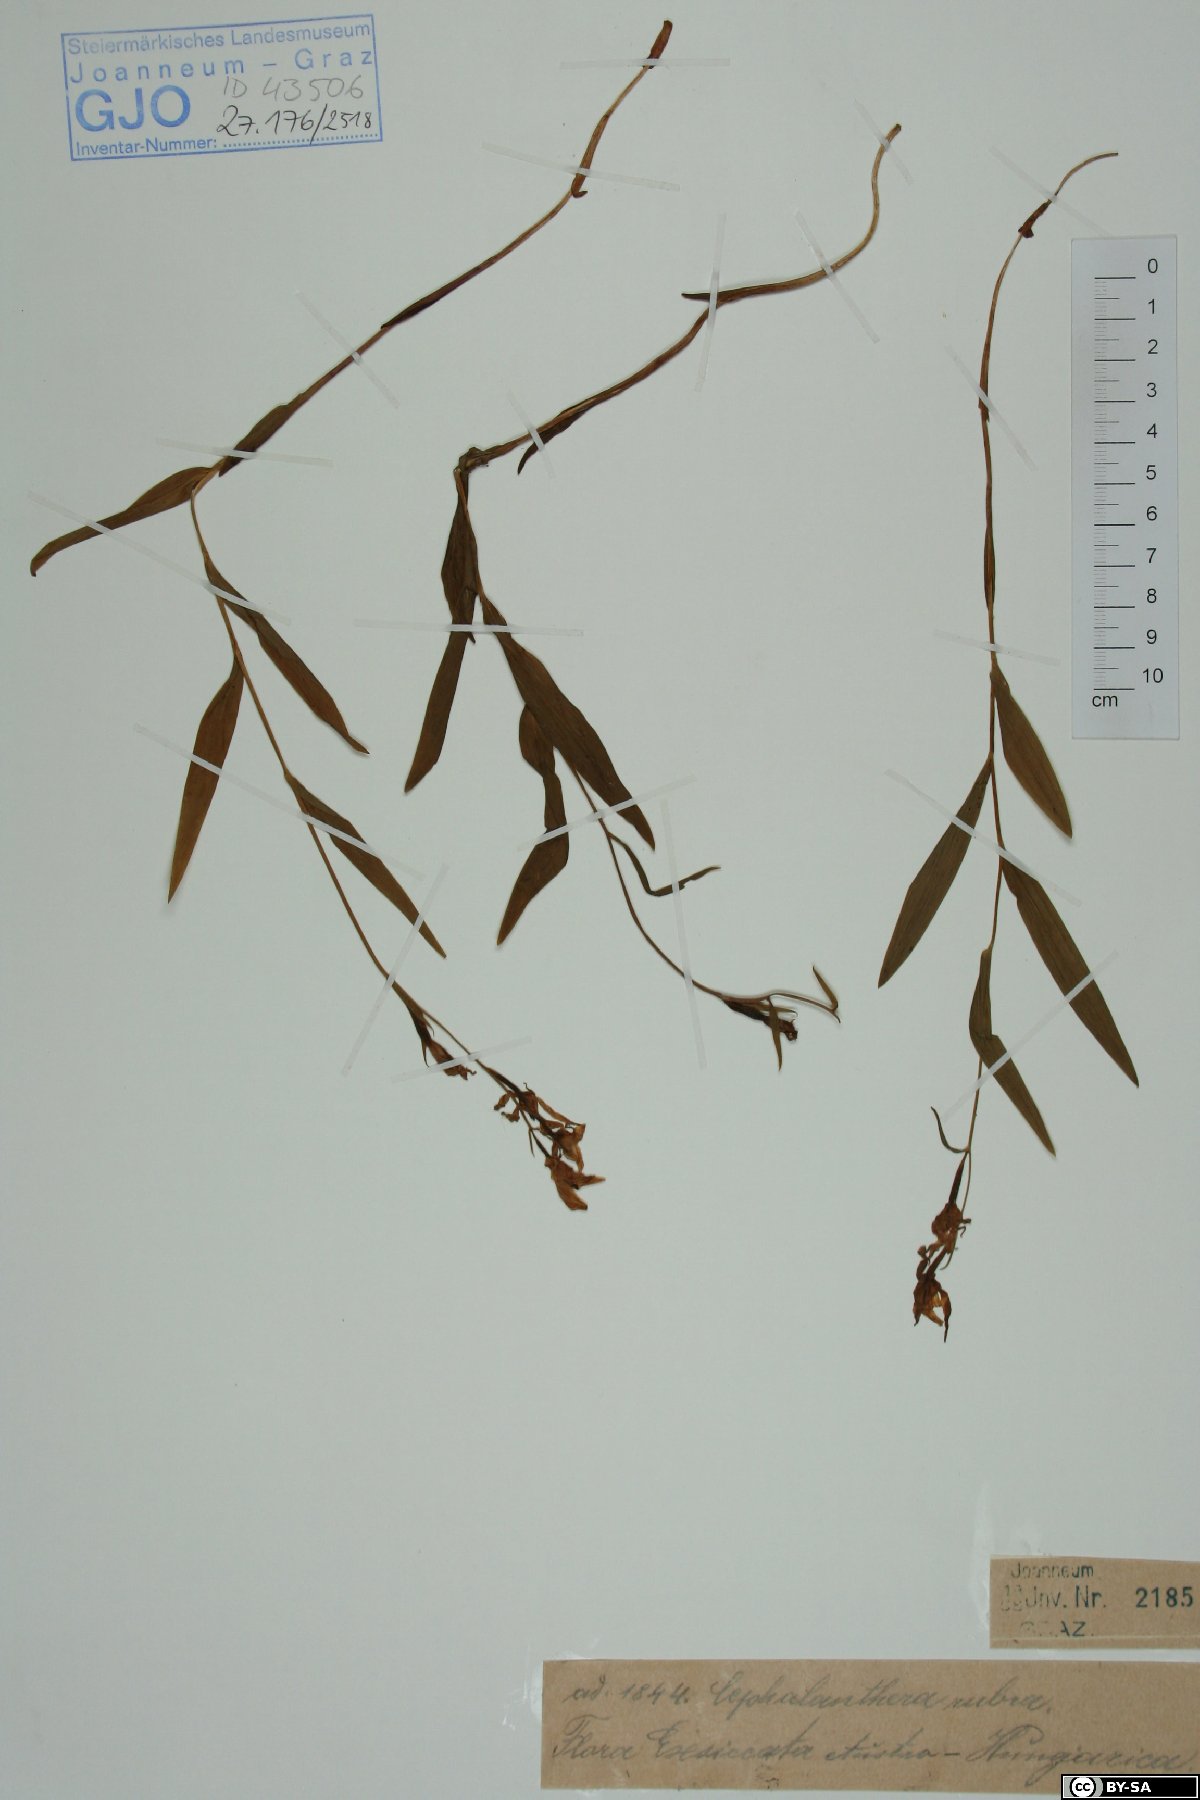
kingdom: Plantae
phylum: Tracheophyta
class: Liliopsida
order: Asparagales
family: Orchidaceae
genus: Cephalanthera
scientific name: Cephalanthera rubra
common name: Red helleborine
